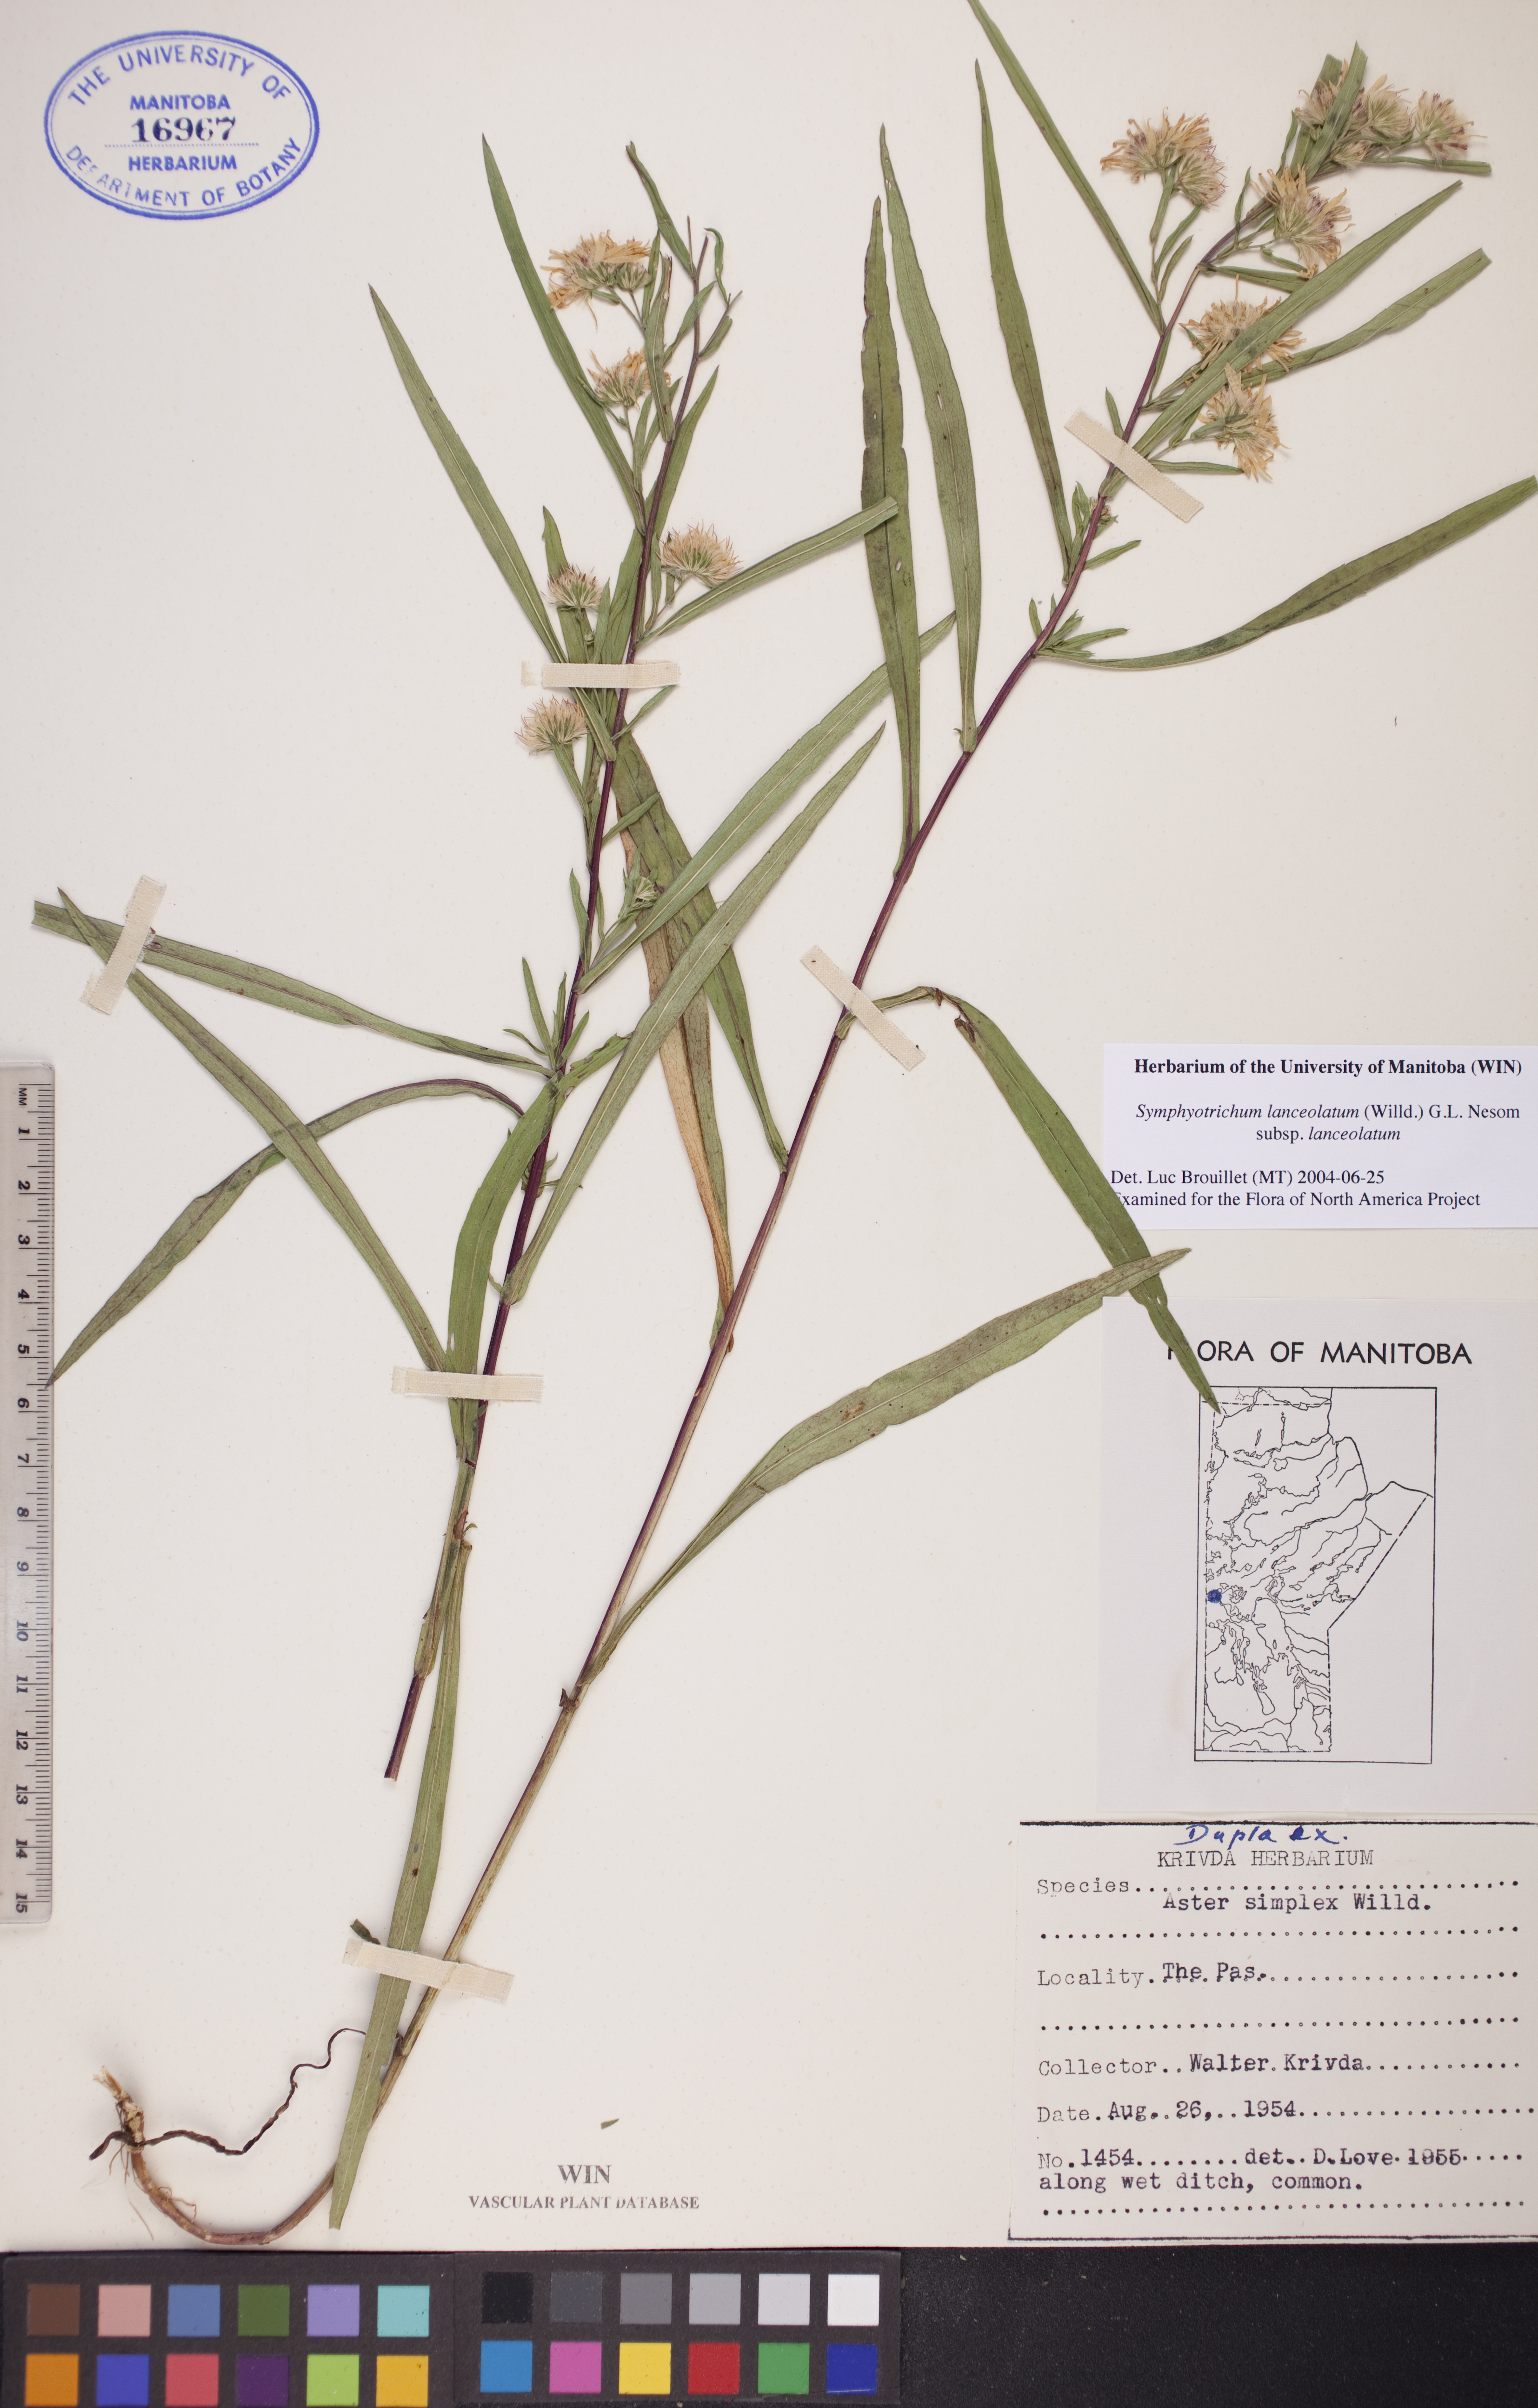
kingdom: Plantae
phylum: Tracheophyta
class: Magnoliopsida
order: Asterales
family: Asteraceae
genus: Symphyotrichum
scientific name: Symphyotrichum lanceolatum
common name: Panicled aster
